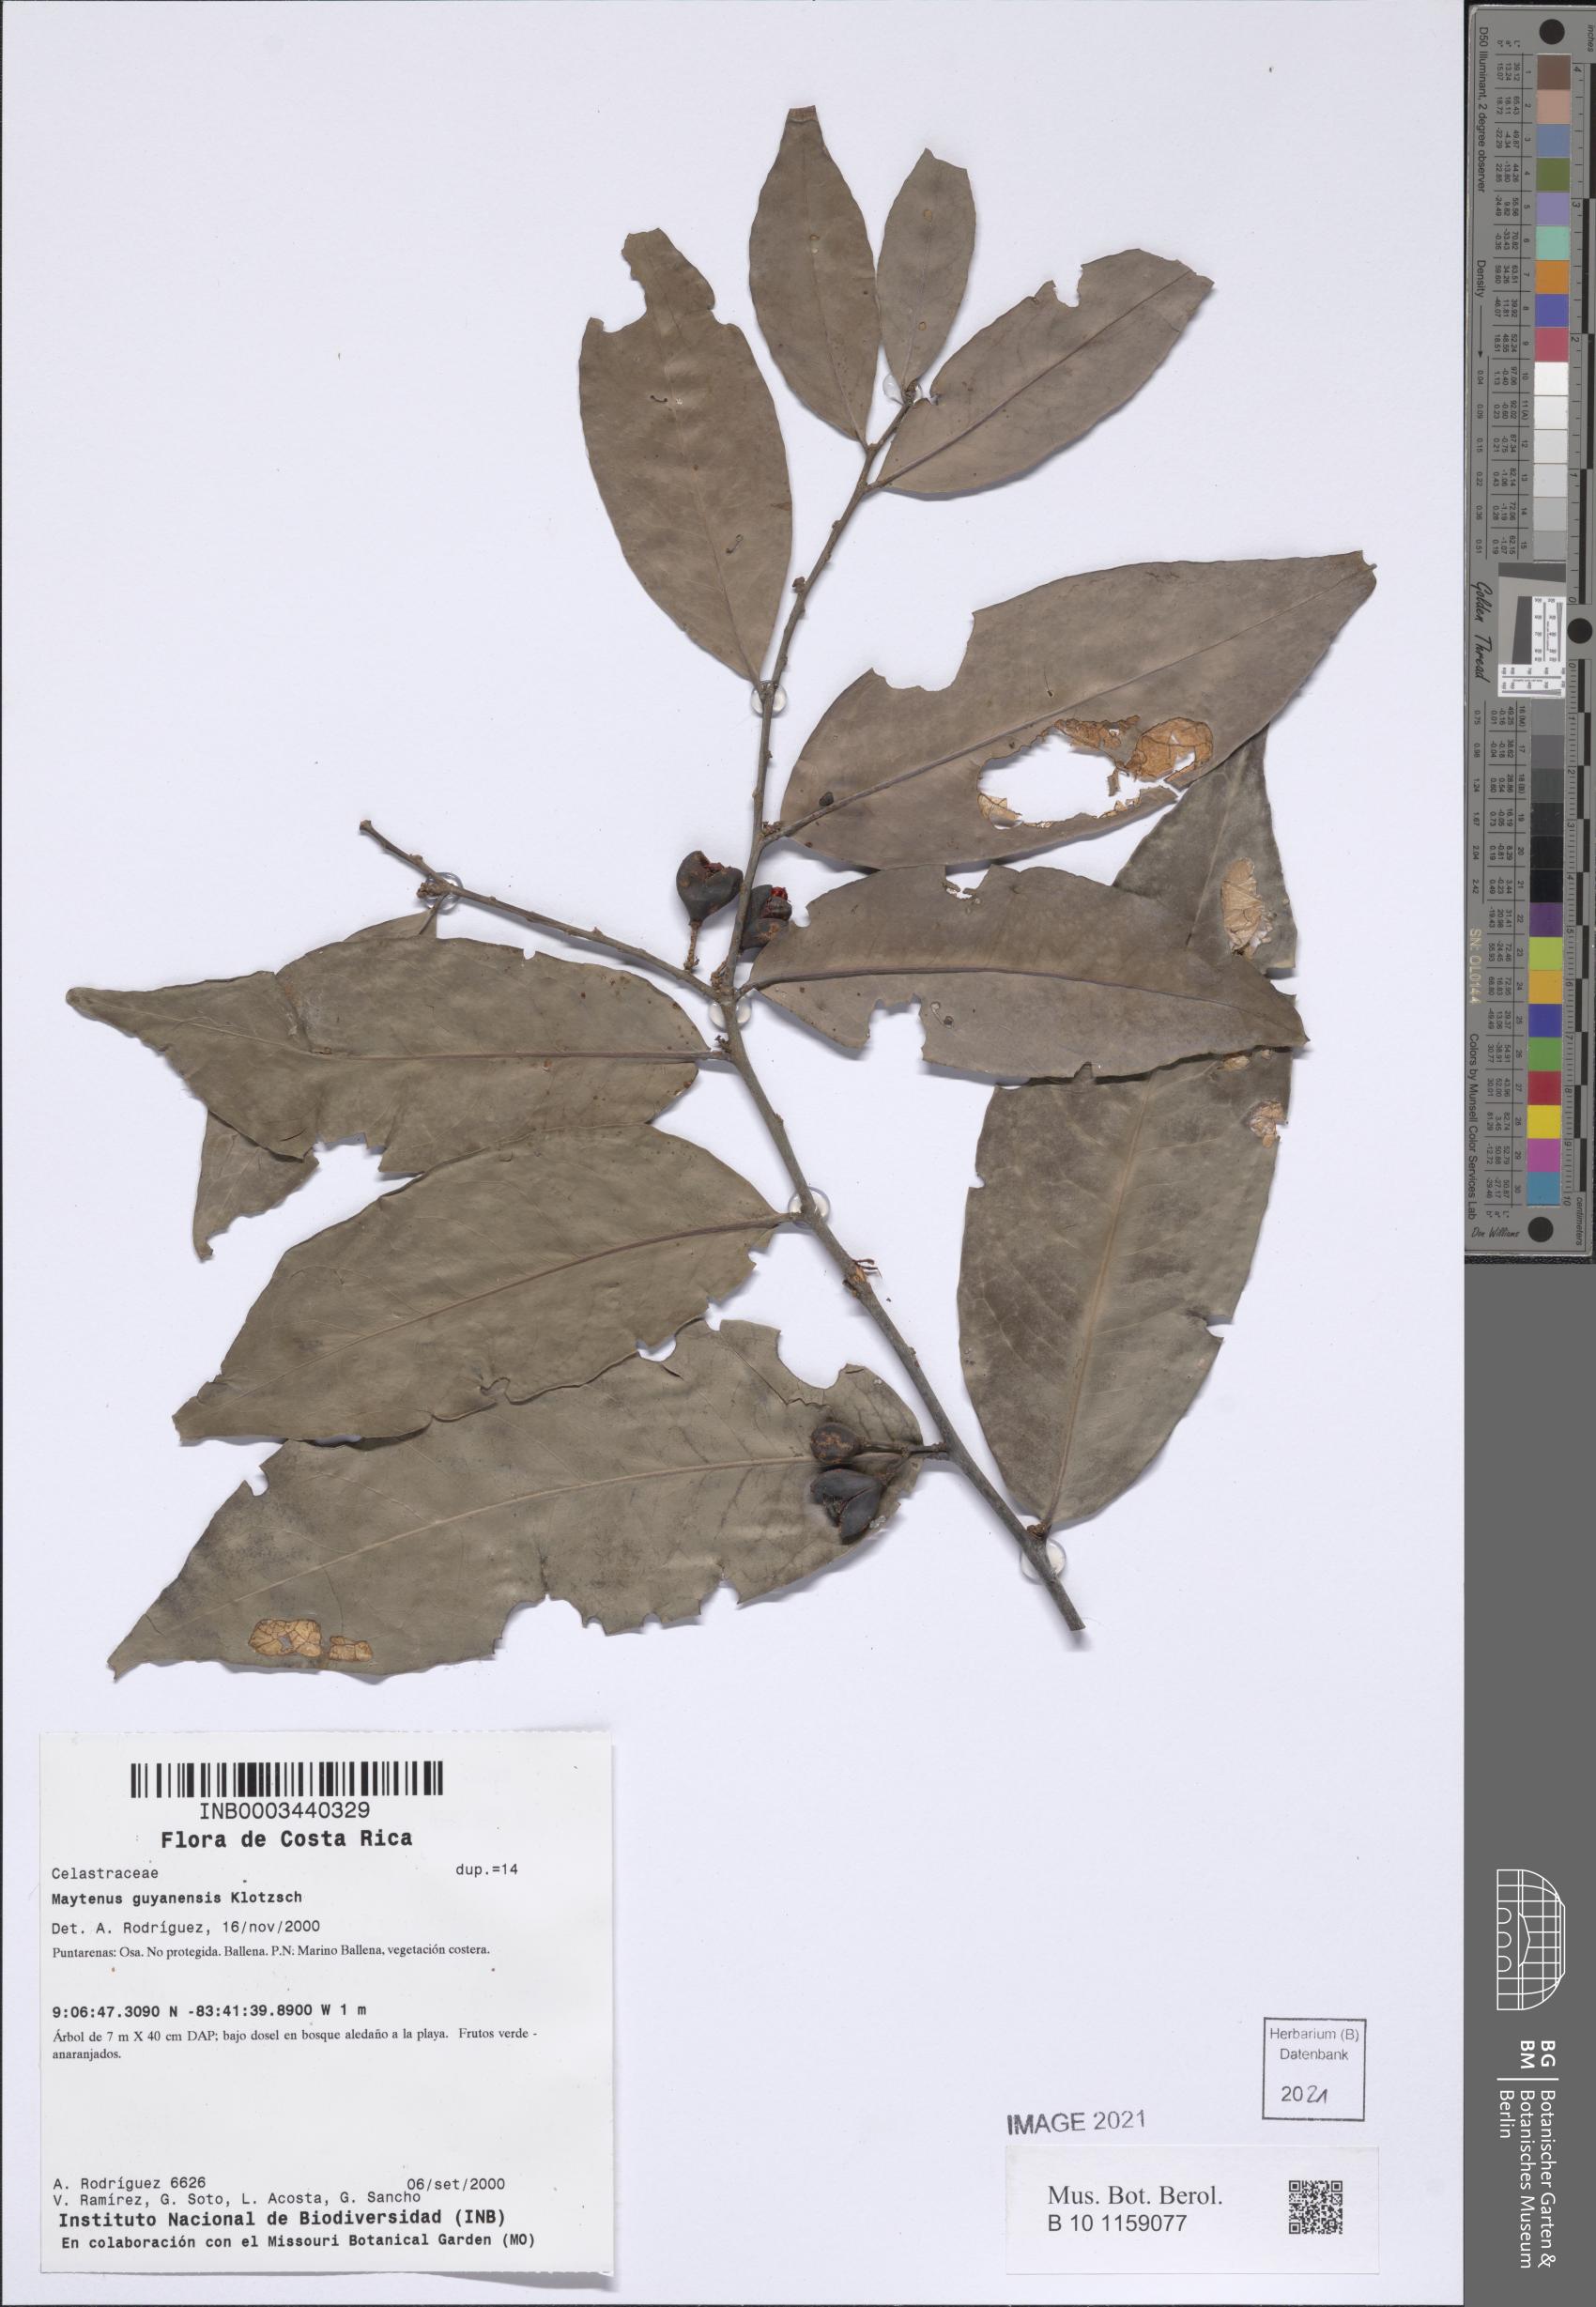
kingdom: Plantae
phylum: Tracheophyta
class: Magnoliopsida
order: Celastrales
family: Celastraceae
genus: Monteverdia
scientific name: Monteverdia guyanensis
